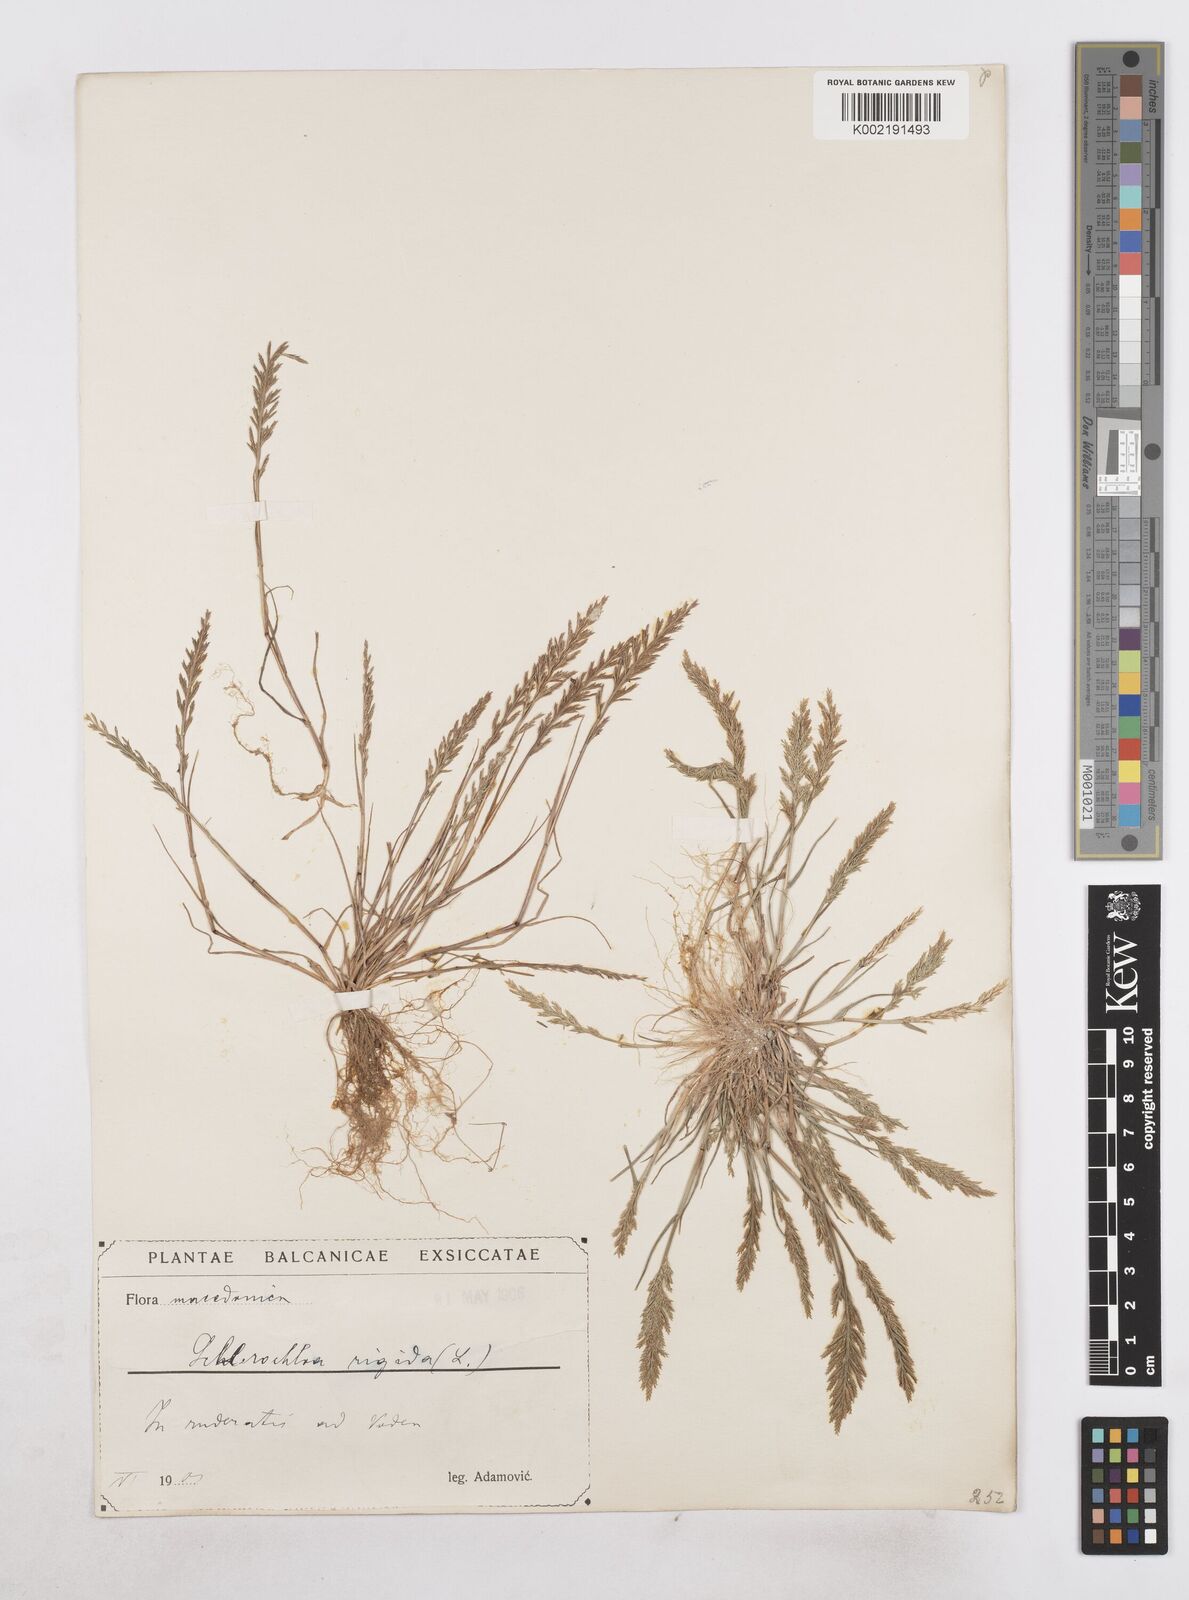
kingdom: Plantae
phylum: Tracheophyta
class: Liliopsida
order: Poales
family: Poaceae
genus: Catapodium
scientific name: Catapodium rigidum
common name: Fern-grass
